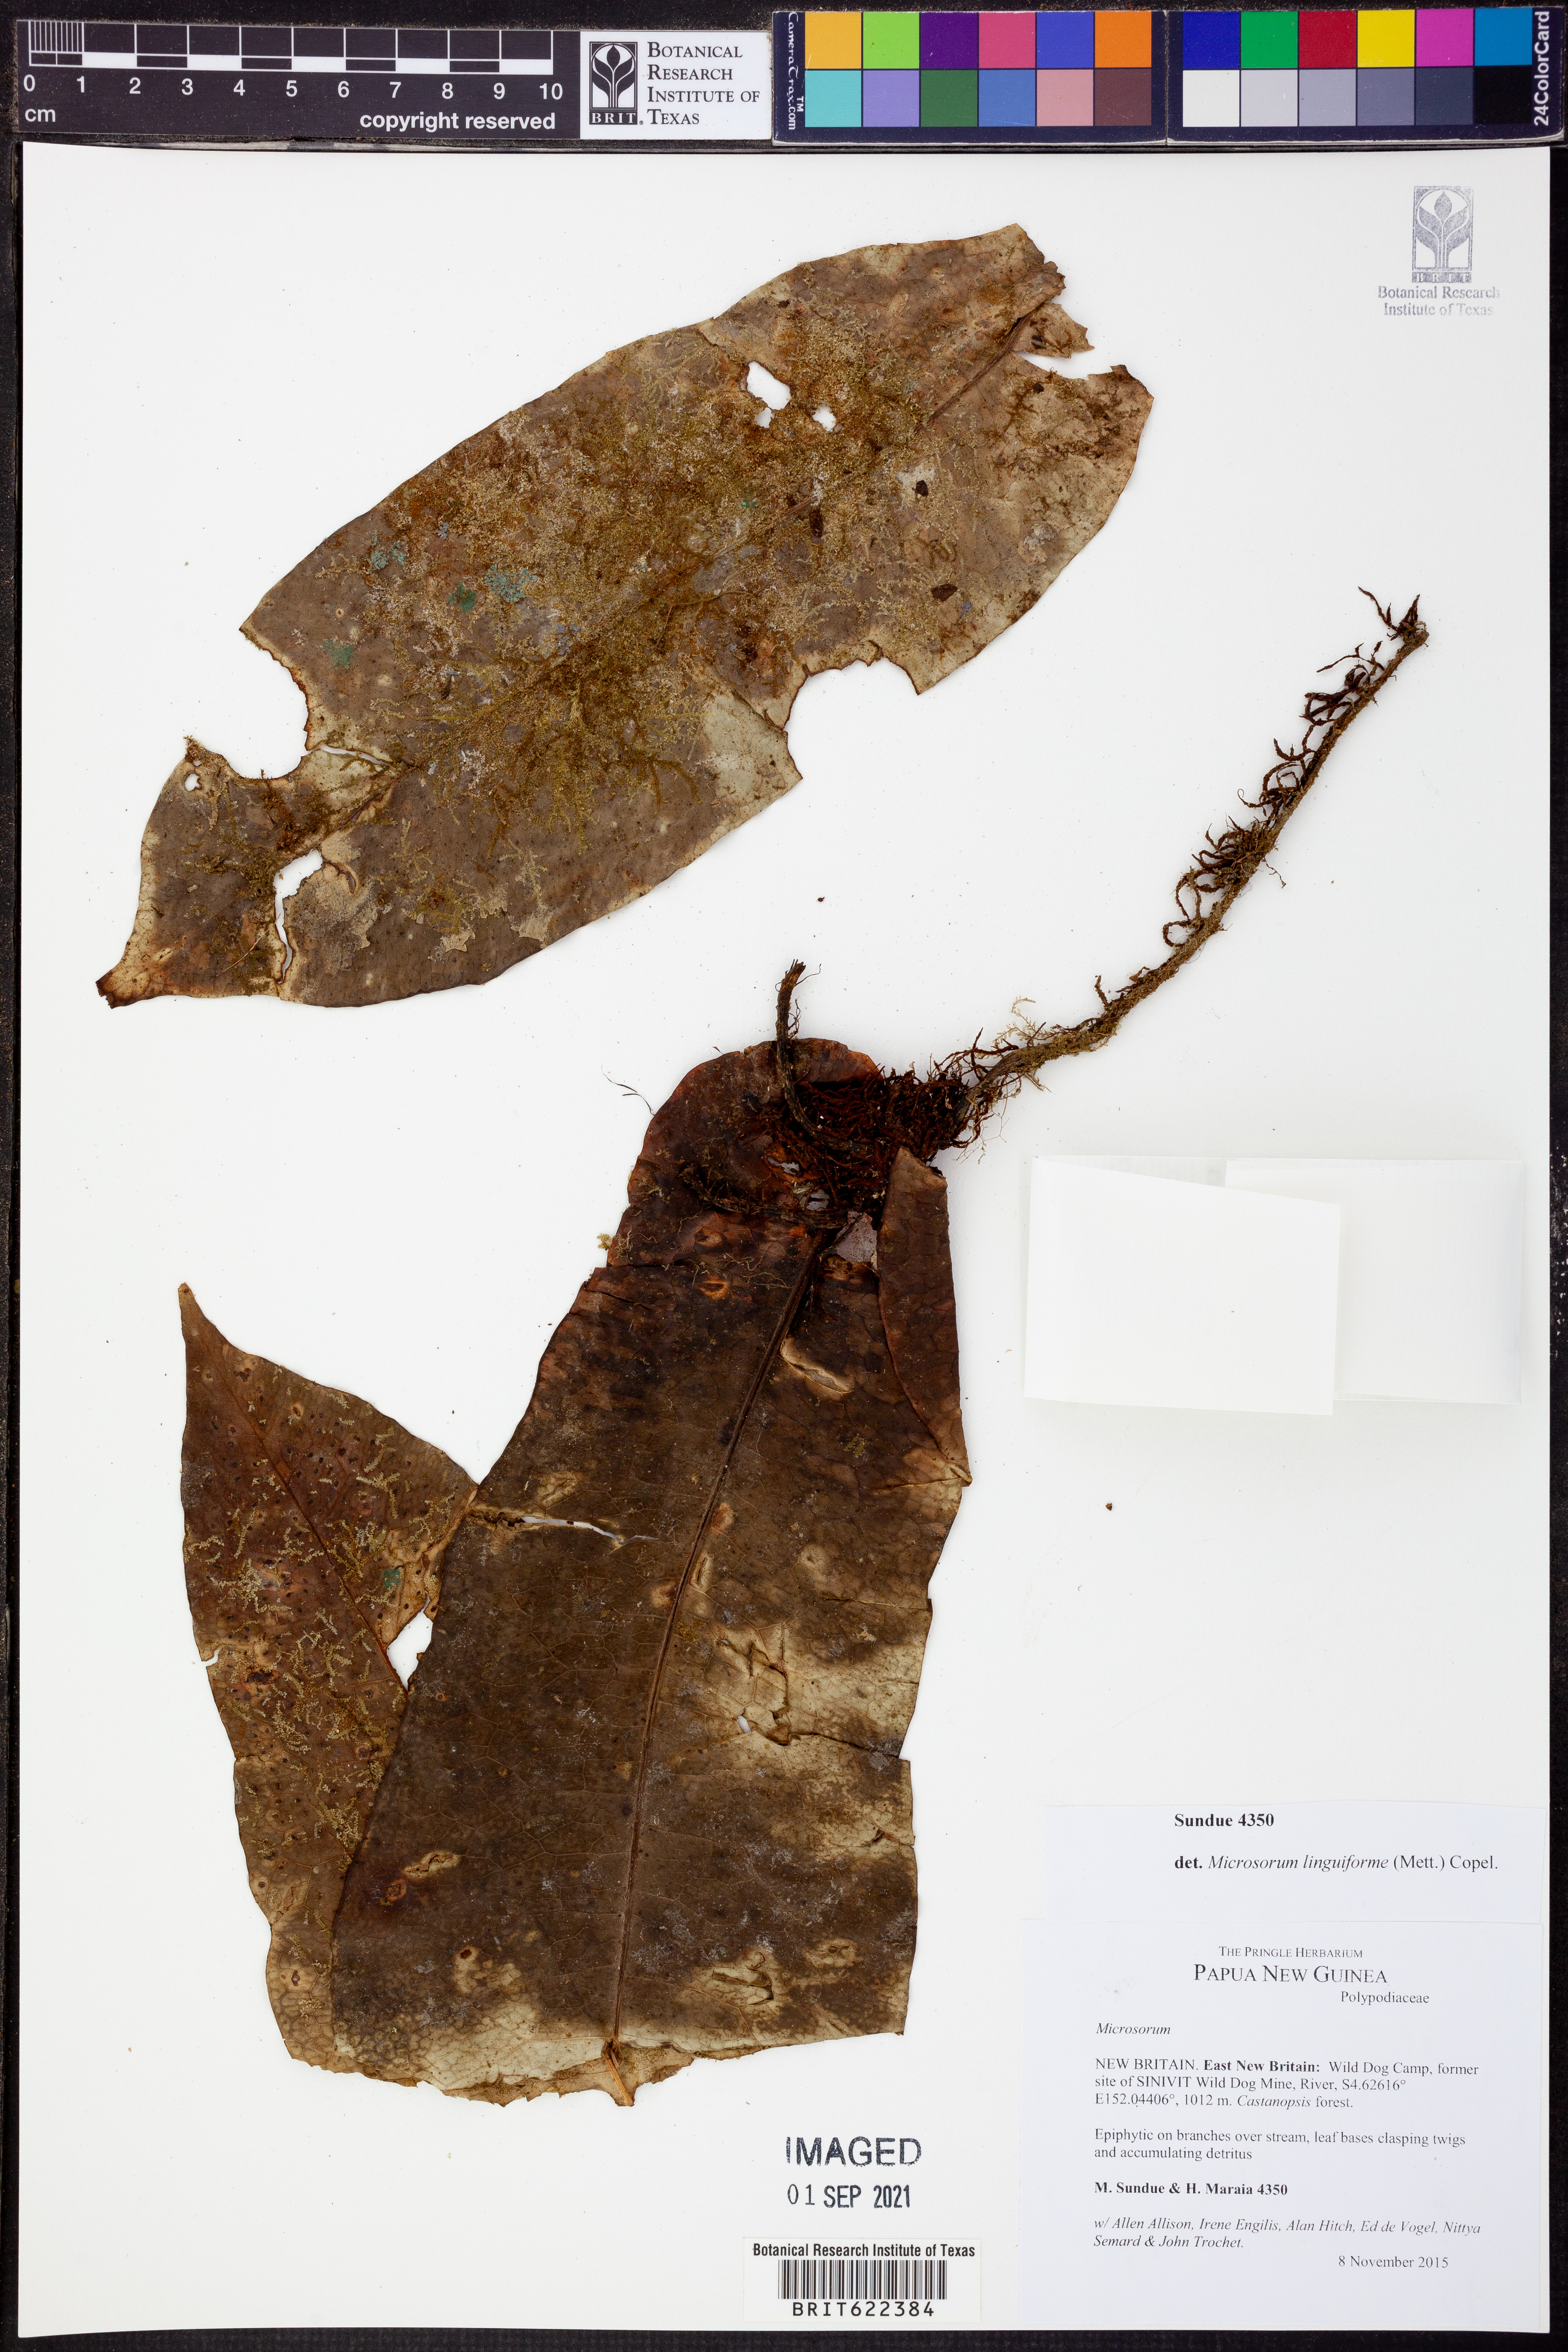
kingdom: Plantae
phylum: Tracheophyta
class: Polypodiopsida
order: Polypodiales
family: Polypodiaceae
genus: Lecanopteris
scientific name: Lecanopteris linguiformis
